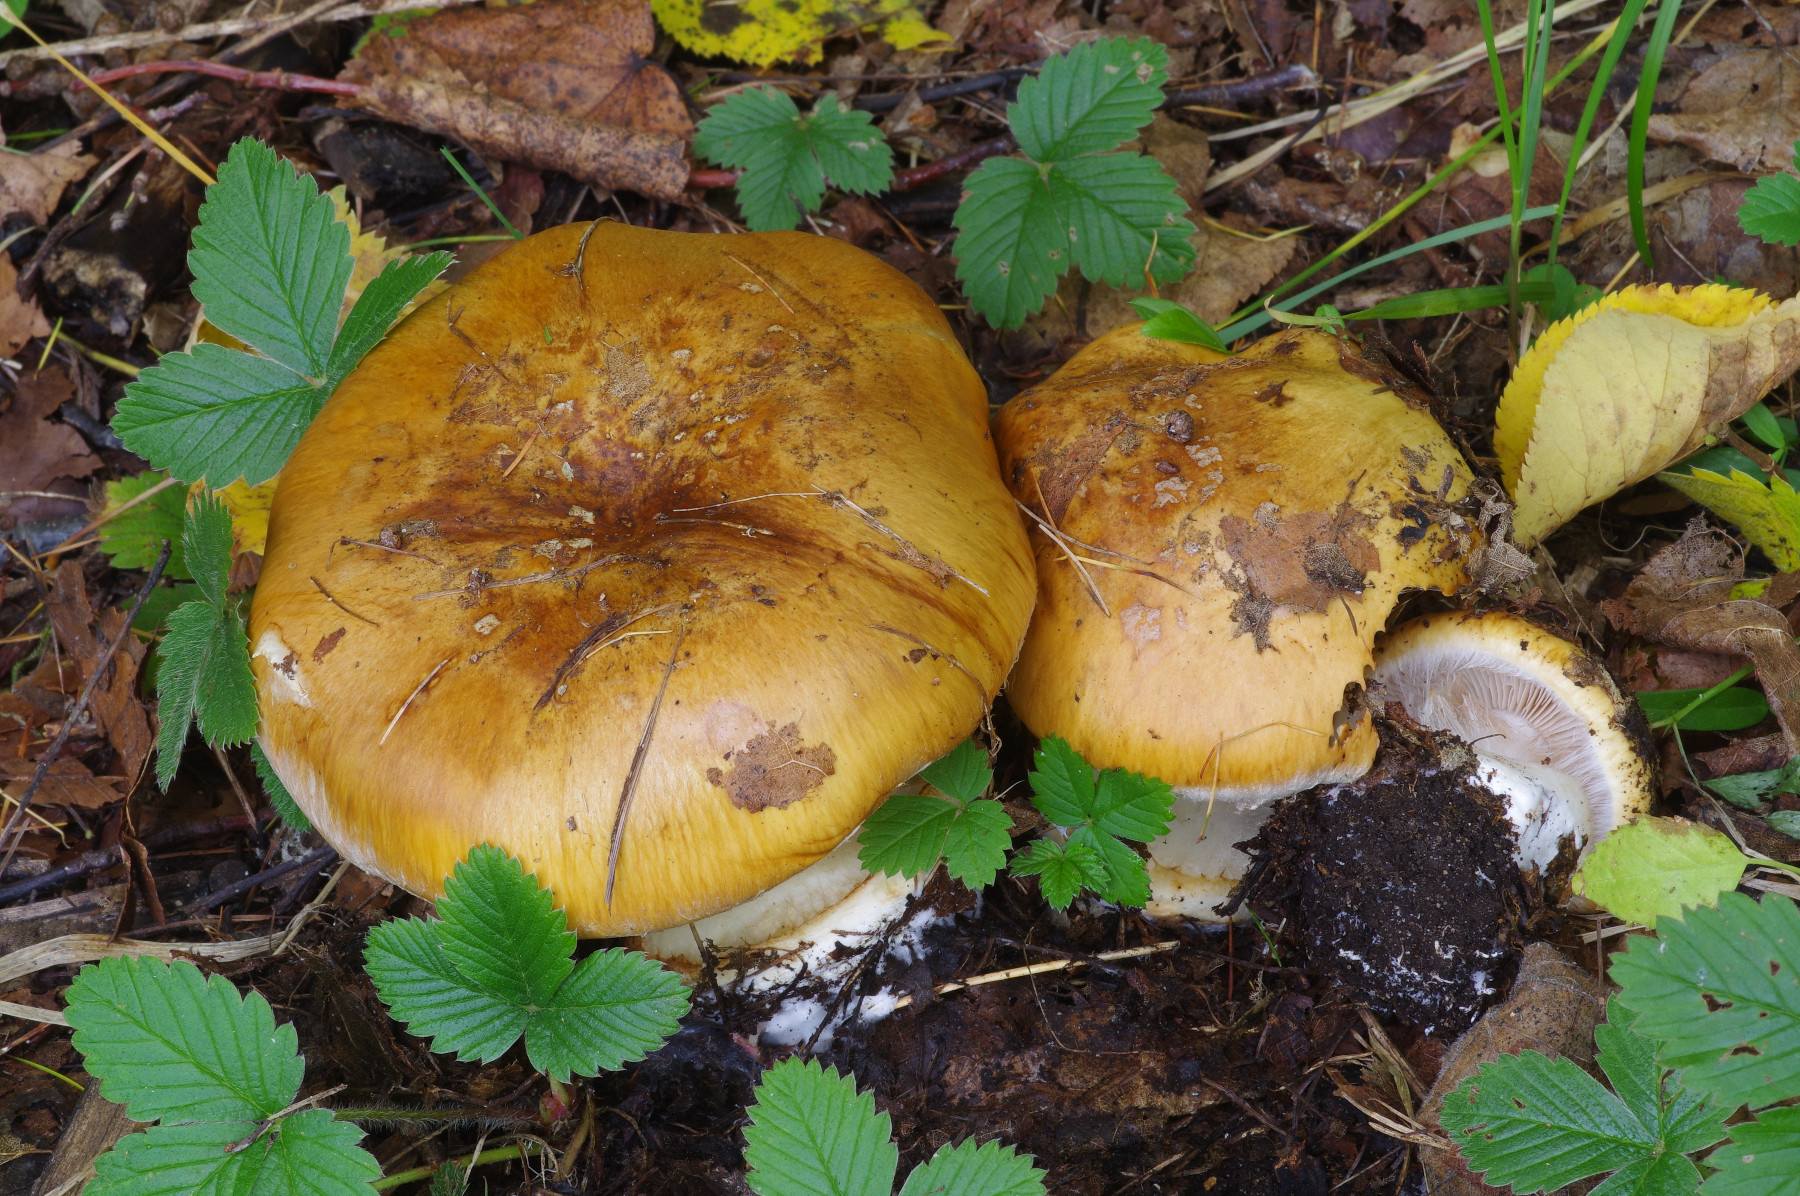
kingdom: Fungi
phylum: Basidiomycota
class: Agaricomycetes
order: Agaricales
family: Cortinariaceae
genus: Calonarius
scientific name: Calonarius saporatus
